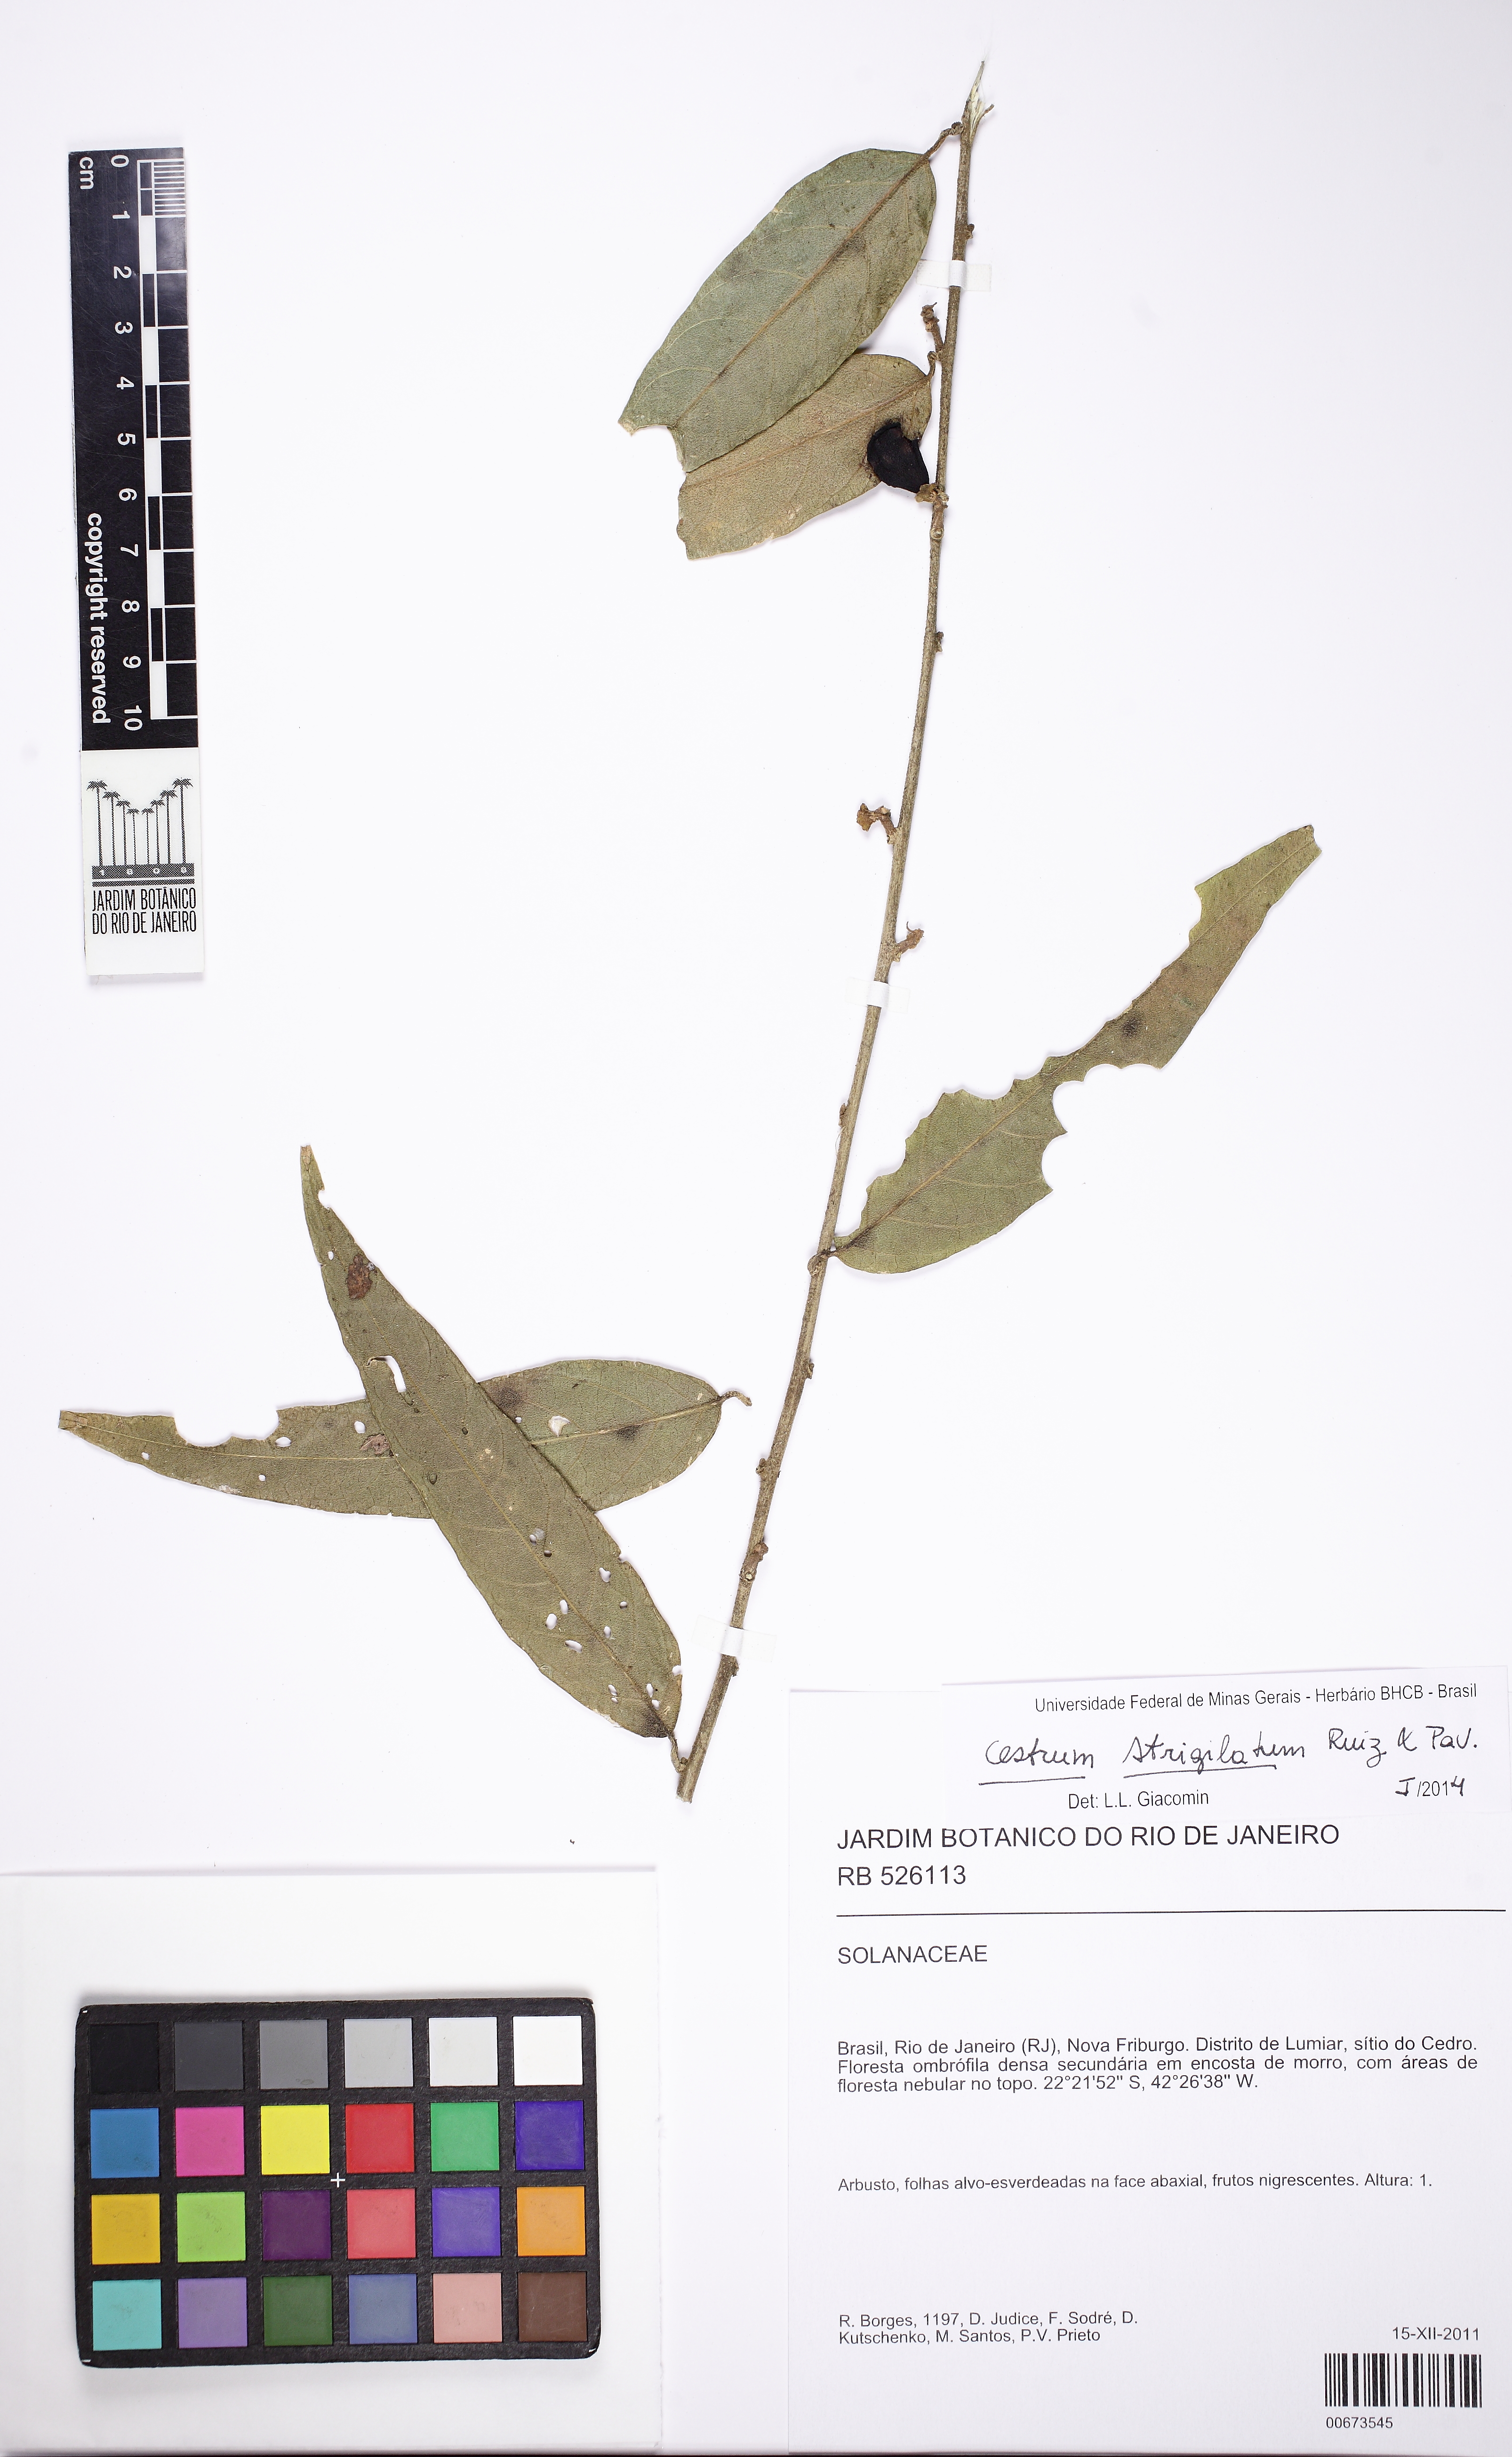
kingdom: Plantae
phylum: Tracheophyta
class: Magnoliopsida
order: Solanales
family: Solanaceae
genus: Cestrum
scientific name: Cestrum strigillatum
